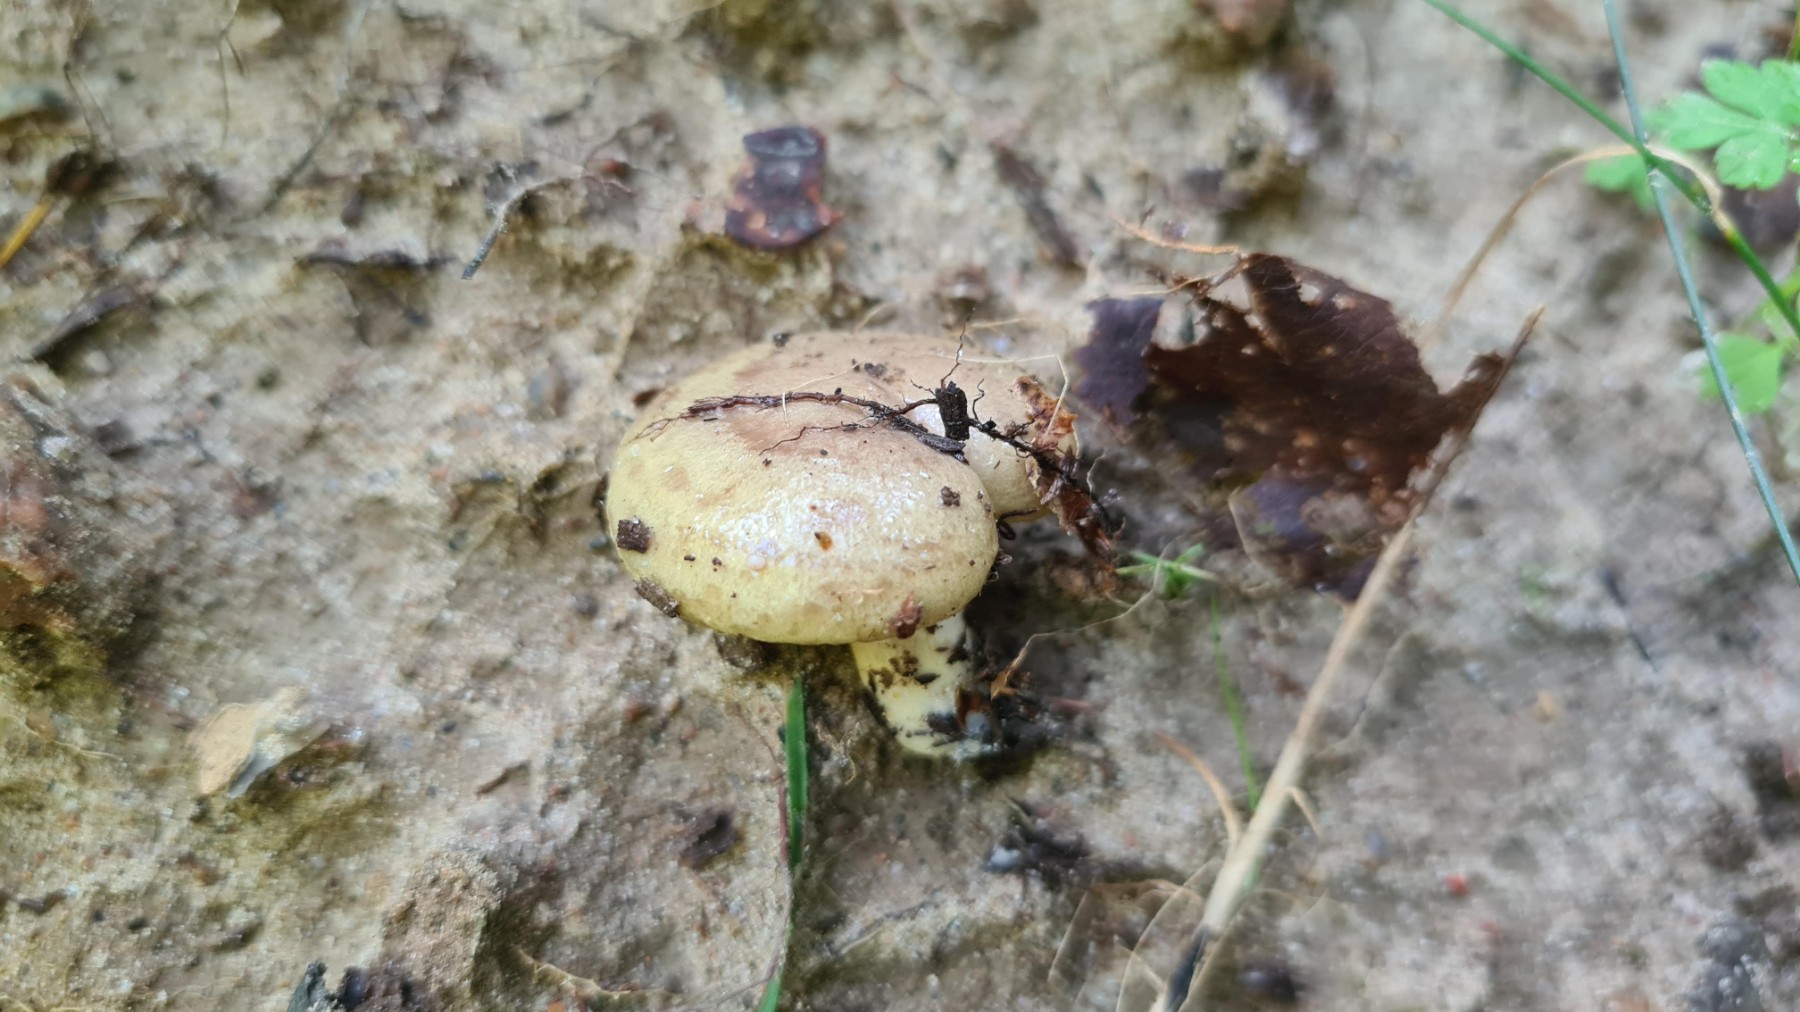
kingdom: Fungi
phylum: Basidiomycota
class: Agaricomycetes
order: Russulales
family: Russulaceae
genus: Lactarius
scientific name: Lactarius blennius
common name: dråbeplettet mælkehat
